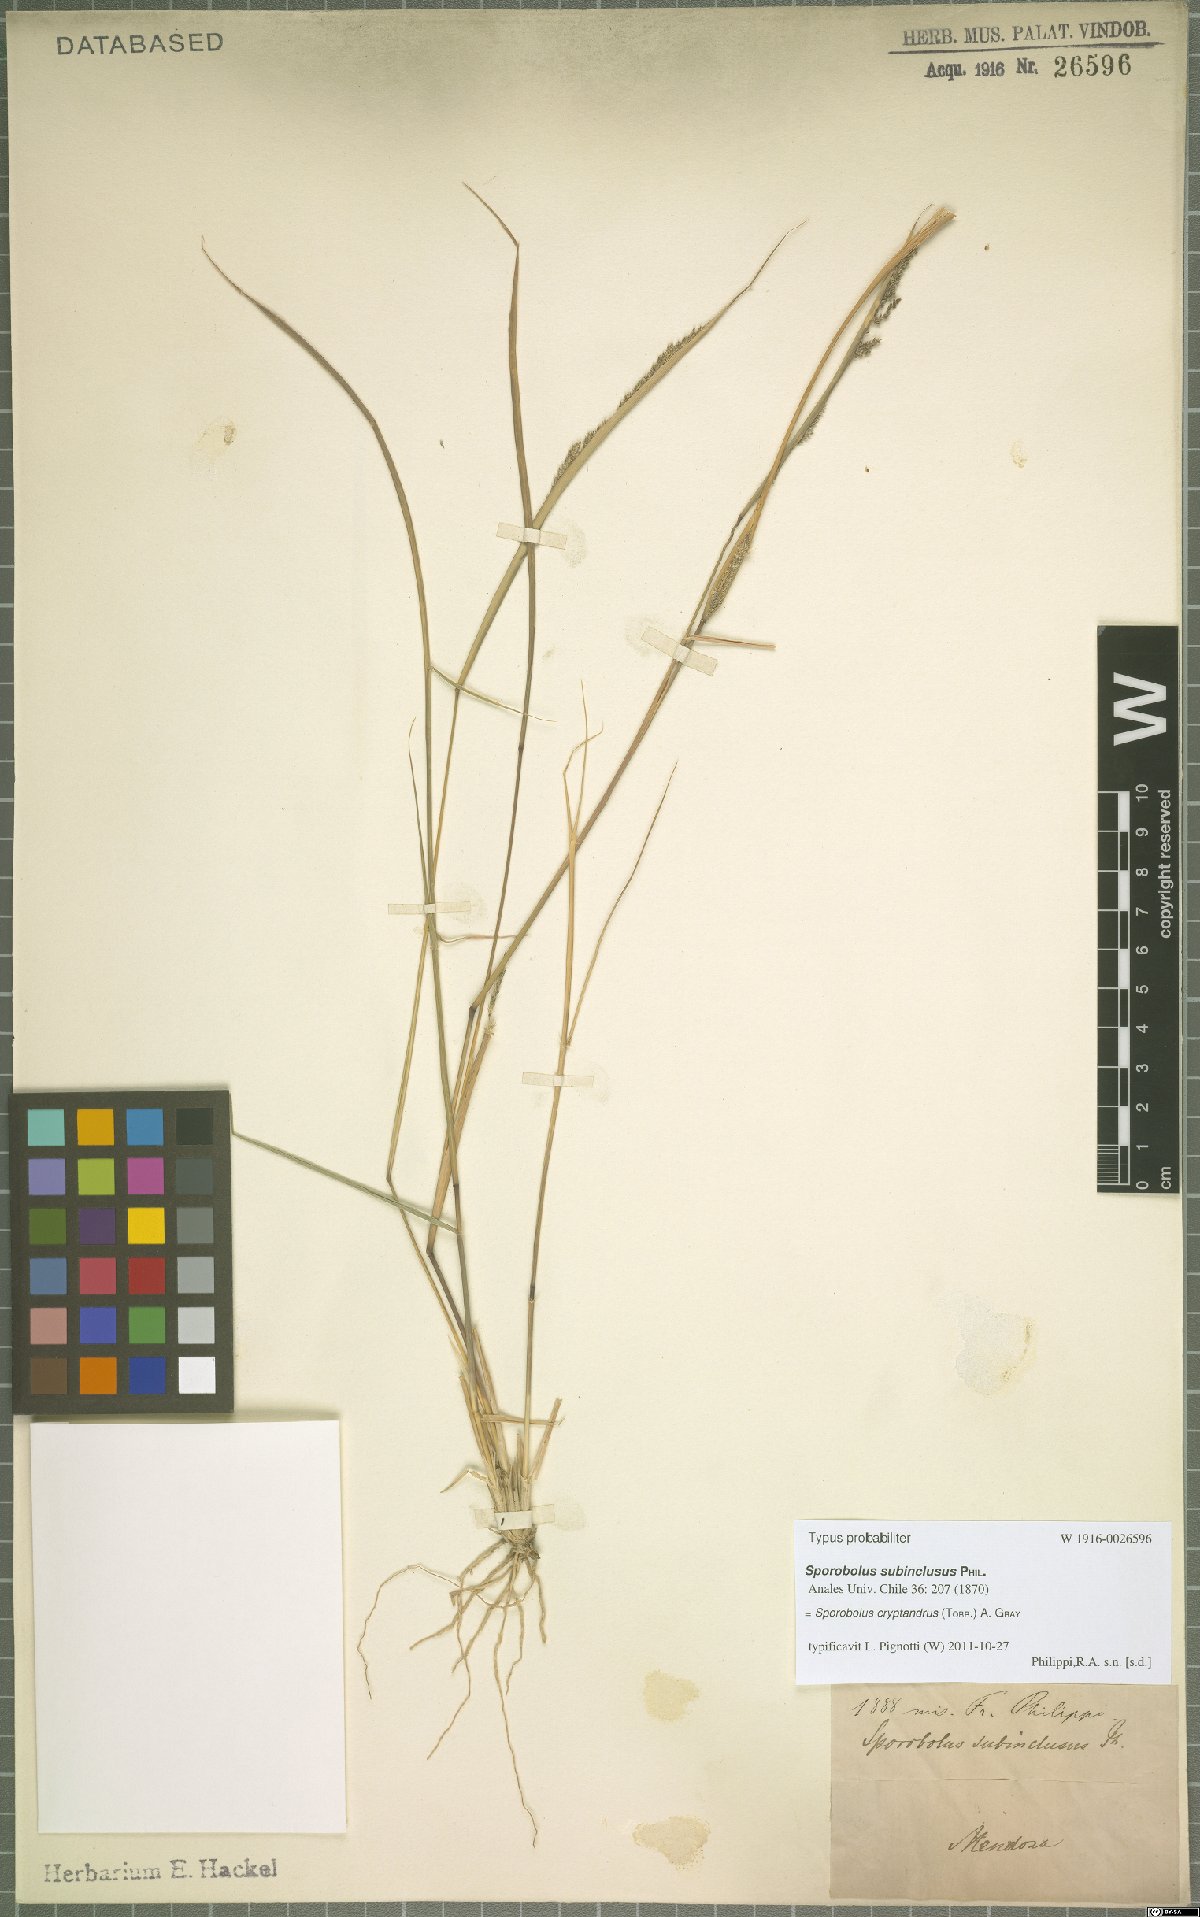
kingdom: Plantae
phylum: Tracheophyta
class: Liliopsida
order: Poales
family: Poaceae
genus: Sporobolus
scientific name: Sporobolus cryptandrus
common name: Sand dropseed
